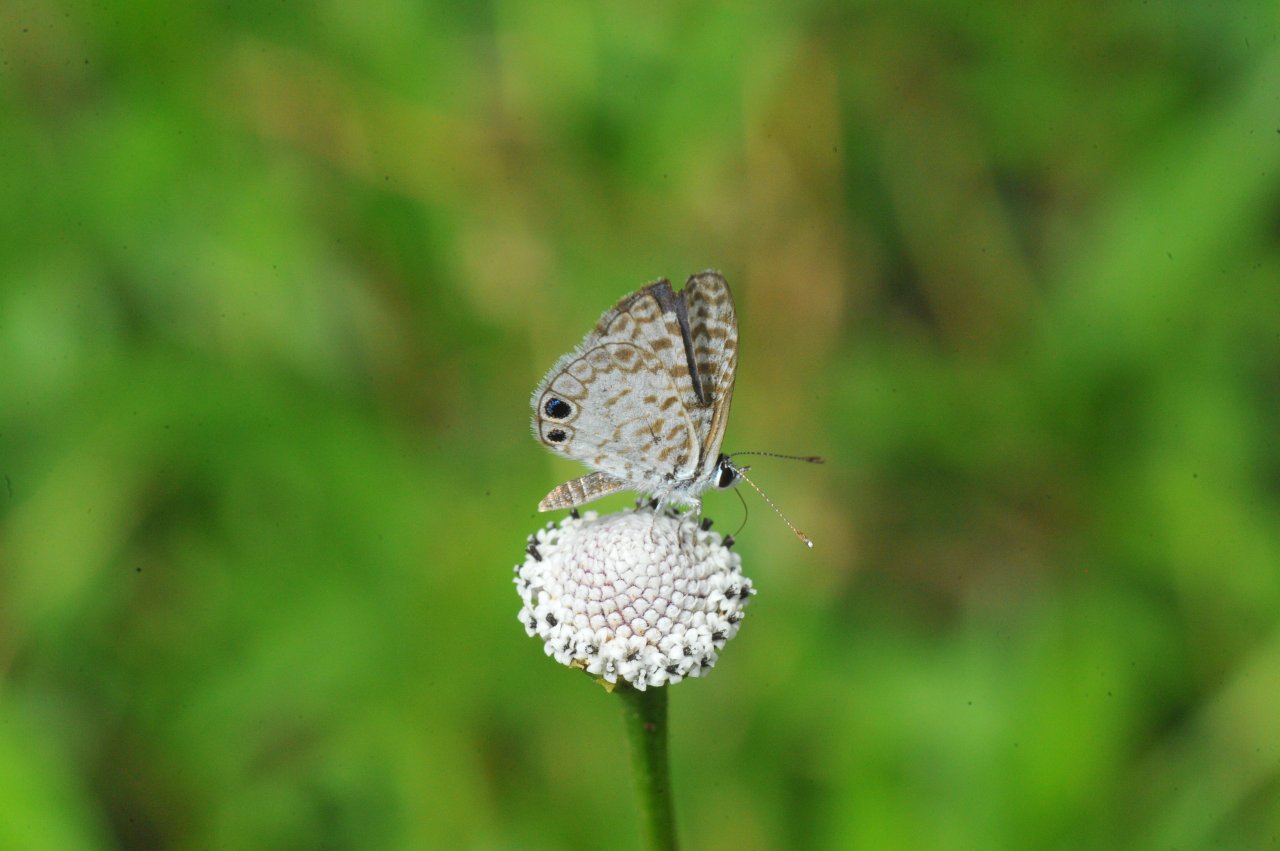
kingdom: Animalia
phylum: Arthropoda
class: Insecta
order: Lepidoptera
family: Lycaenidae
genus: Leptotes
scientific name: Leptotes cassius
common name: Cassius Blue
